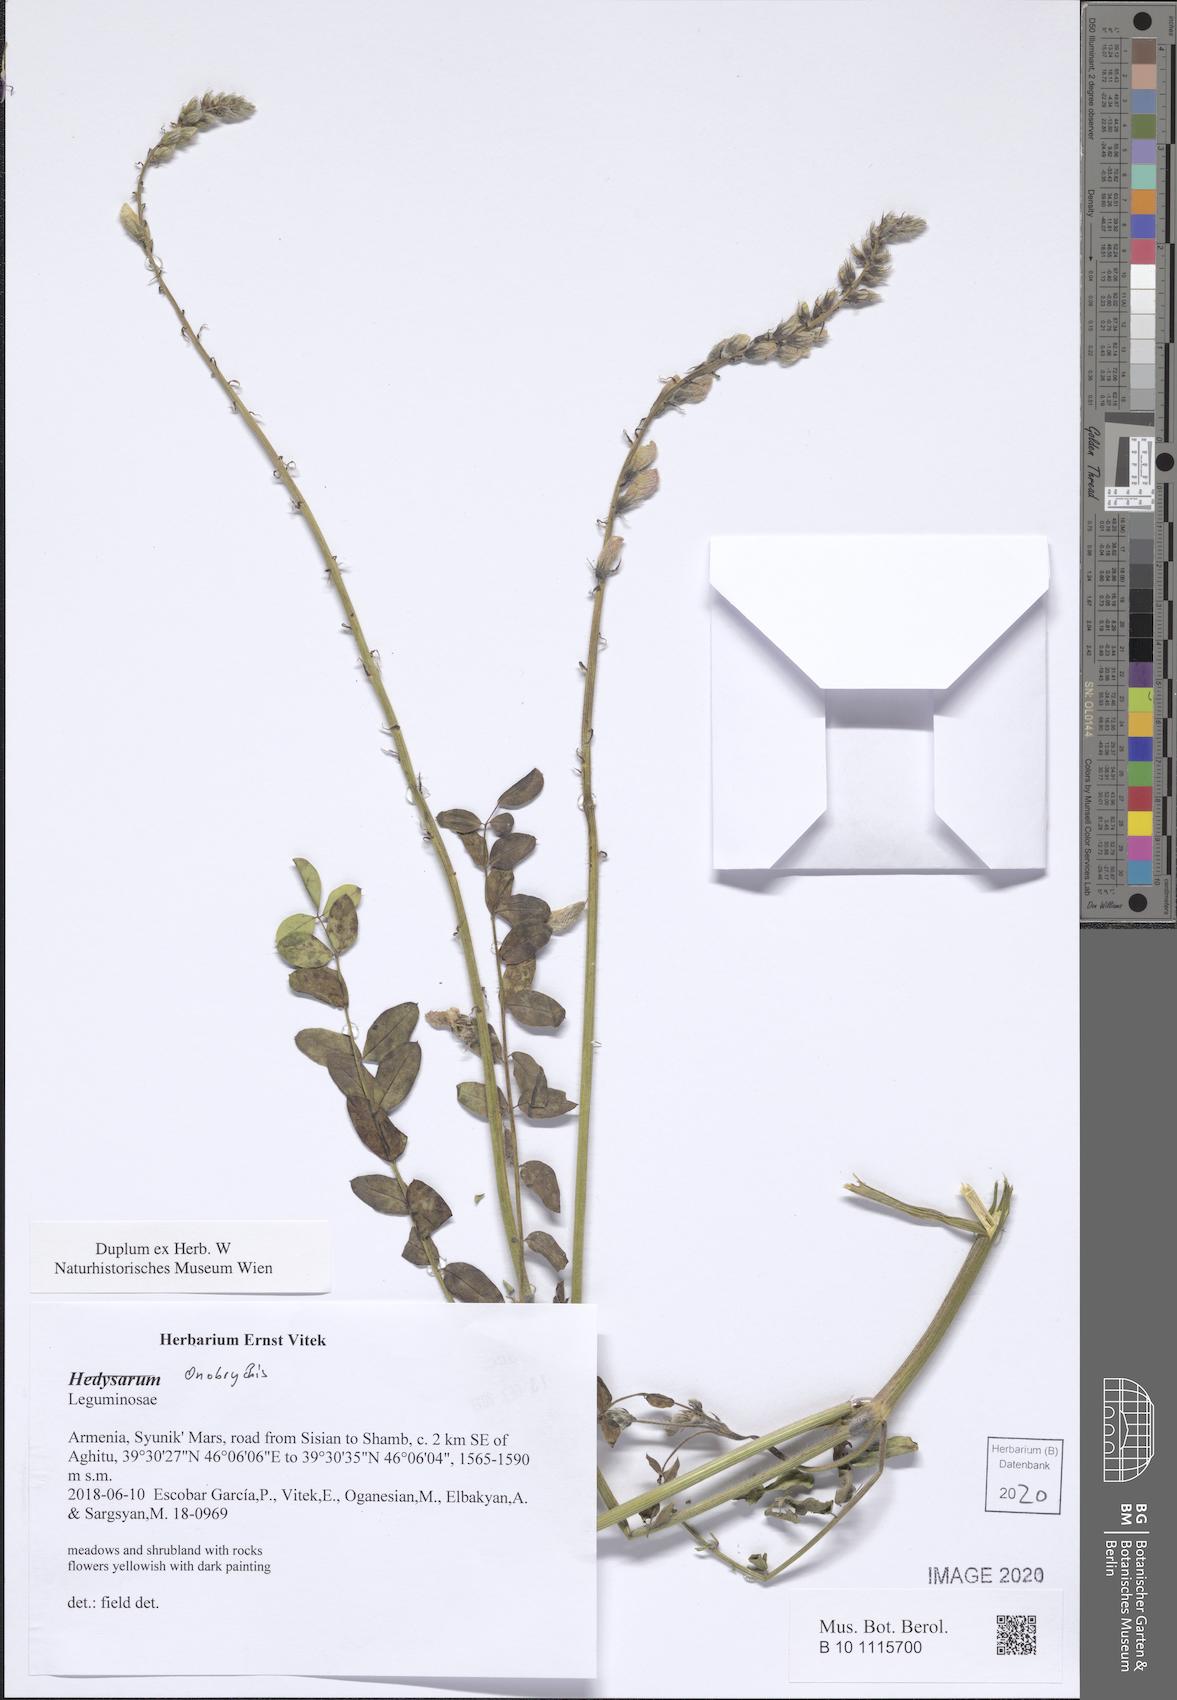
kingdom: Plantae
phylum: Tracheophyta
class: Magnoliopsida
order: Fabales
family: Fabaceae
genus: Onobrychis
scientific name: Onobrychis
